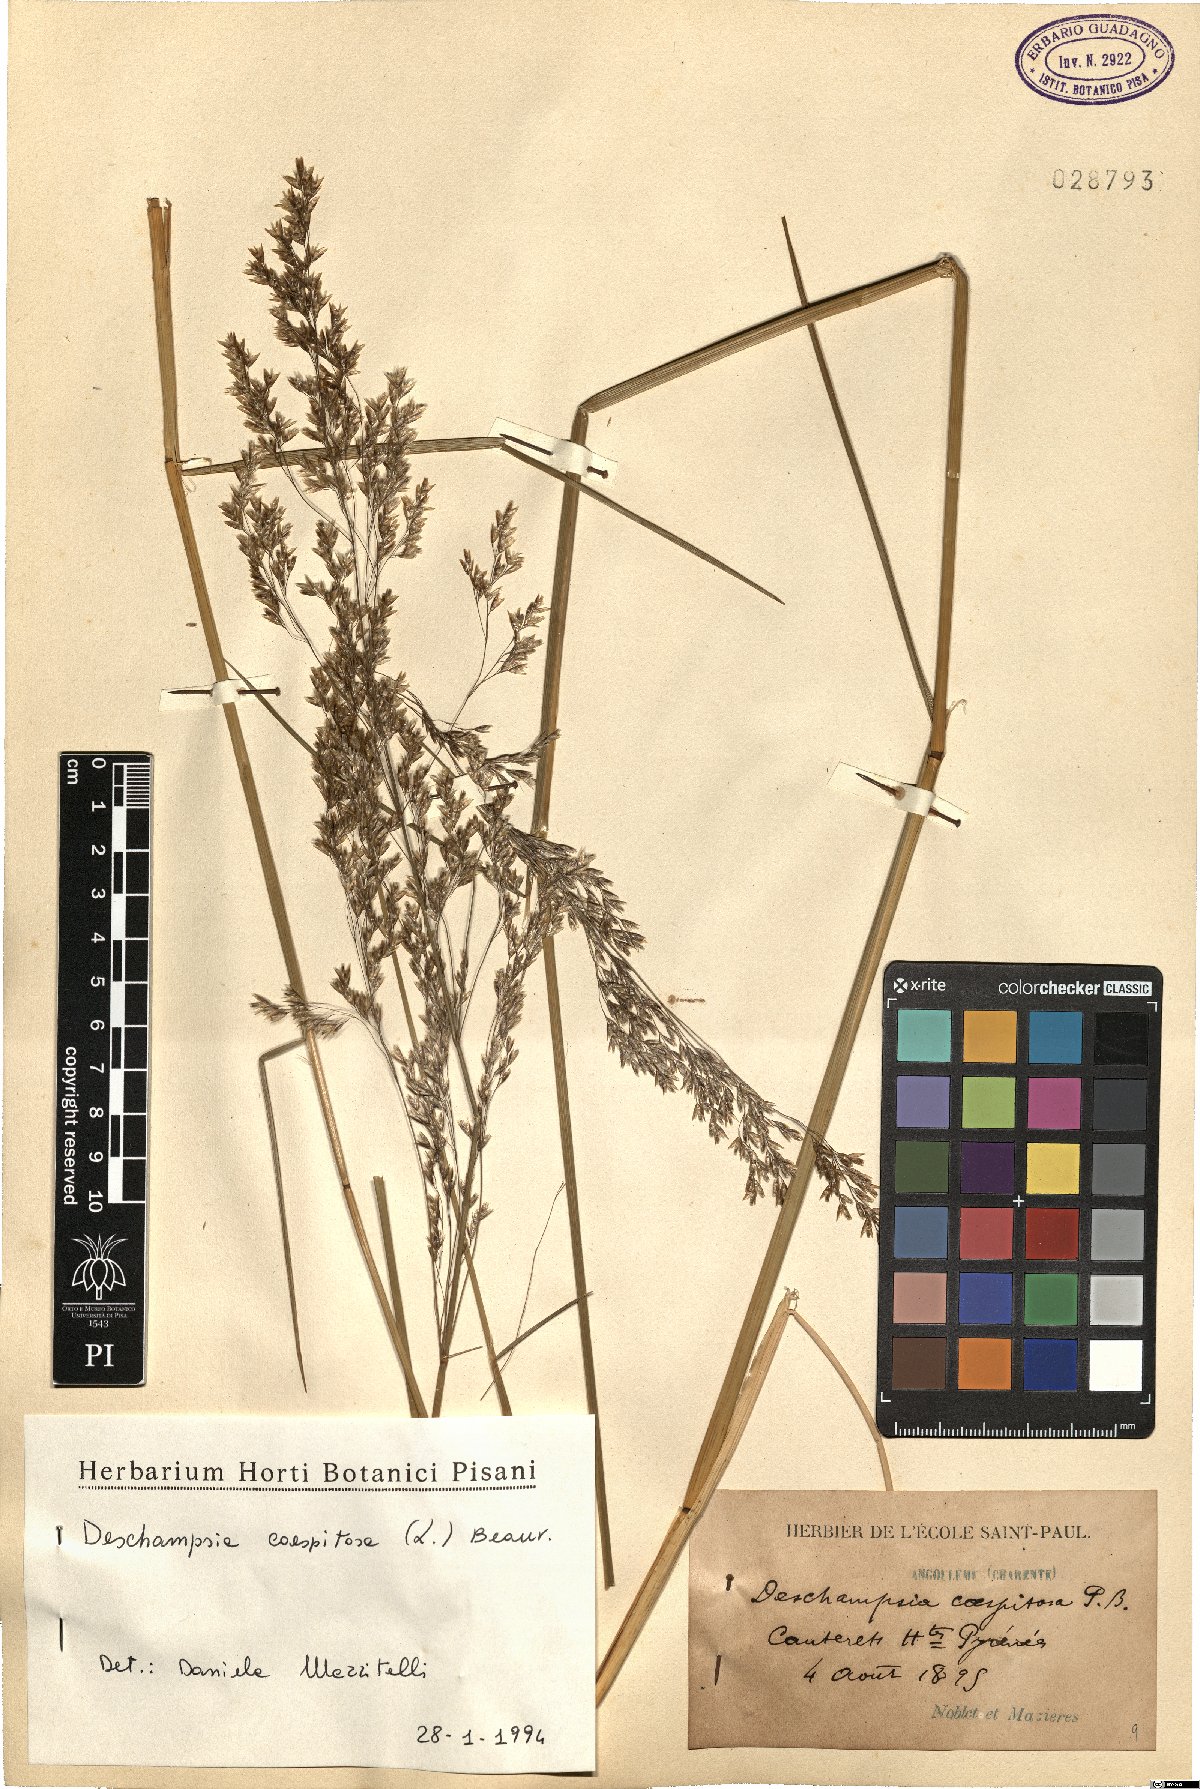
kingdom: Plantae
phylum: Tracheophyta
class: Liliopsida
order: Poales
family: Poaceae
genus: Deschampsia
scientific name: Deschampsia cespitosa
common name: Tufted hair-grass
